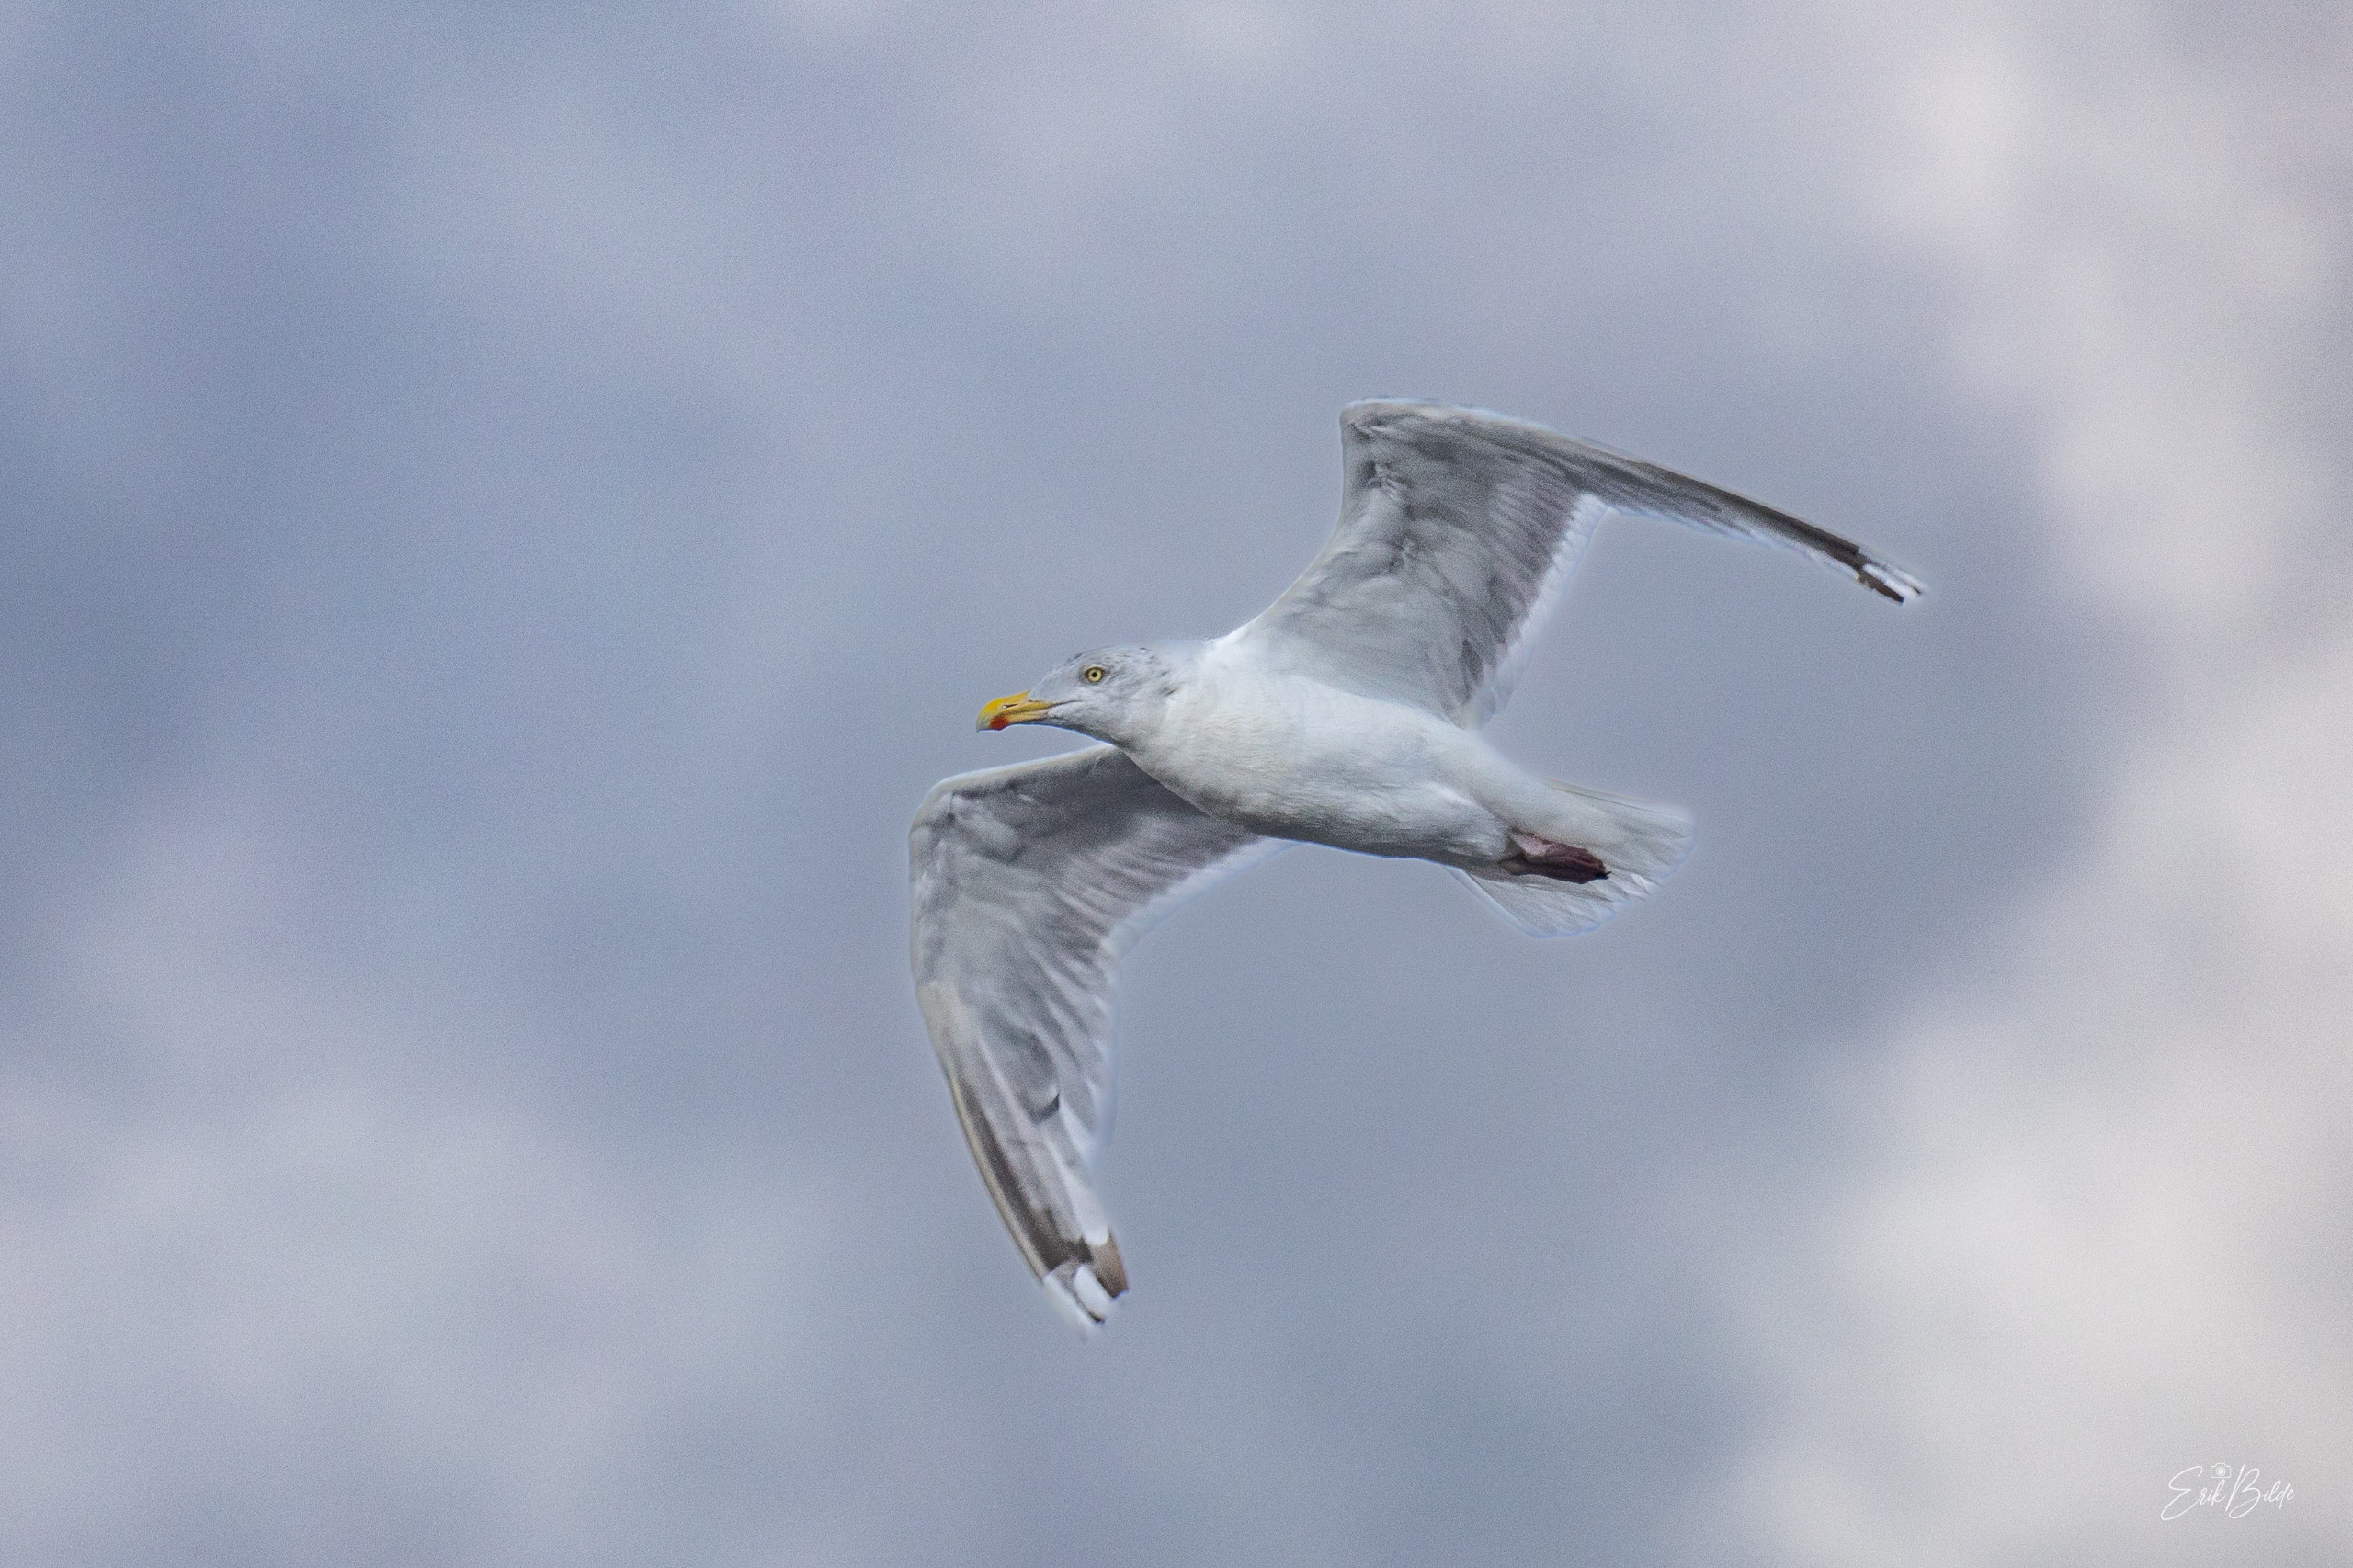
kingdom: Animalia
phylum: Chordata
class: Aves
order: Charadriiformes
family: Laridae
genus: Larus
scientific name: Larus argentatus
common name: Sølvmåge
